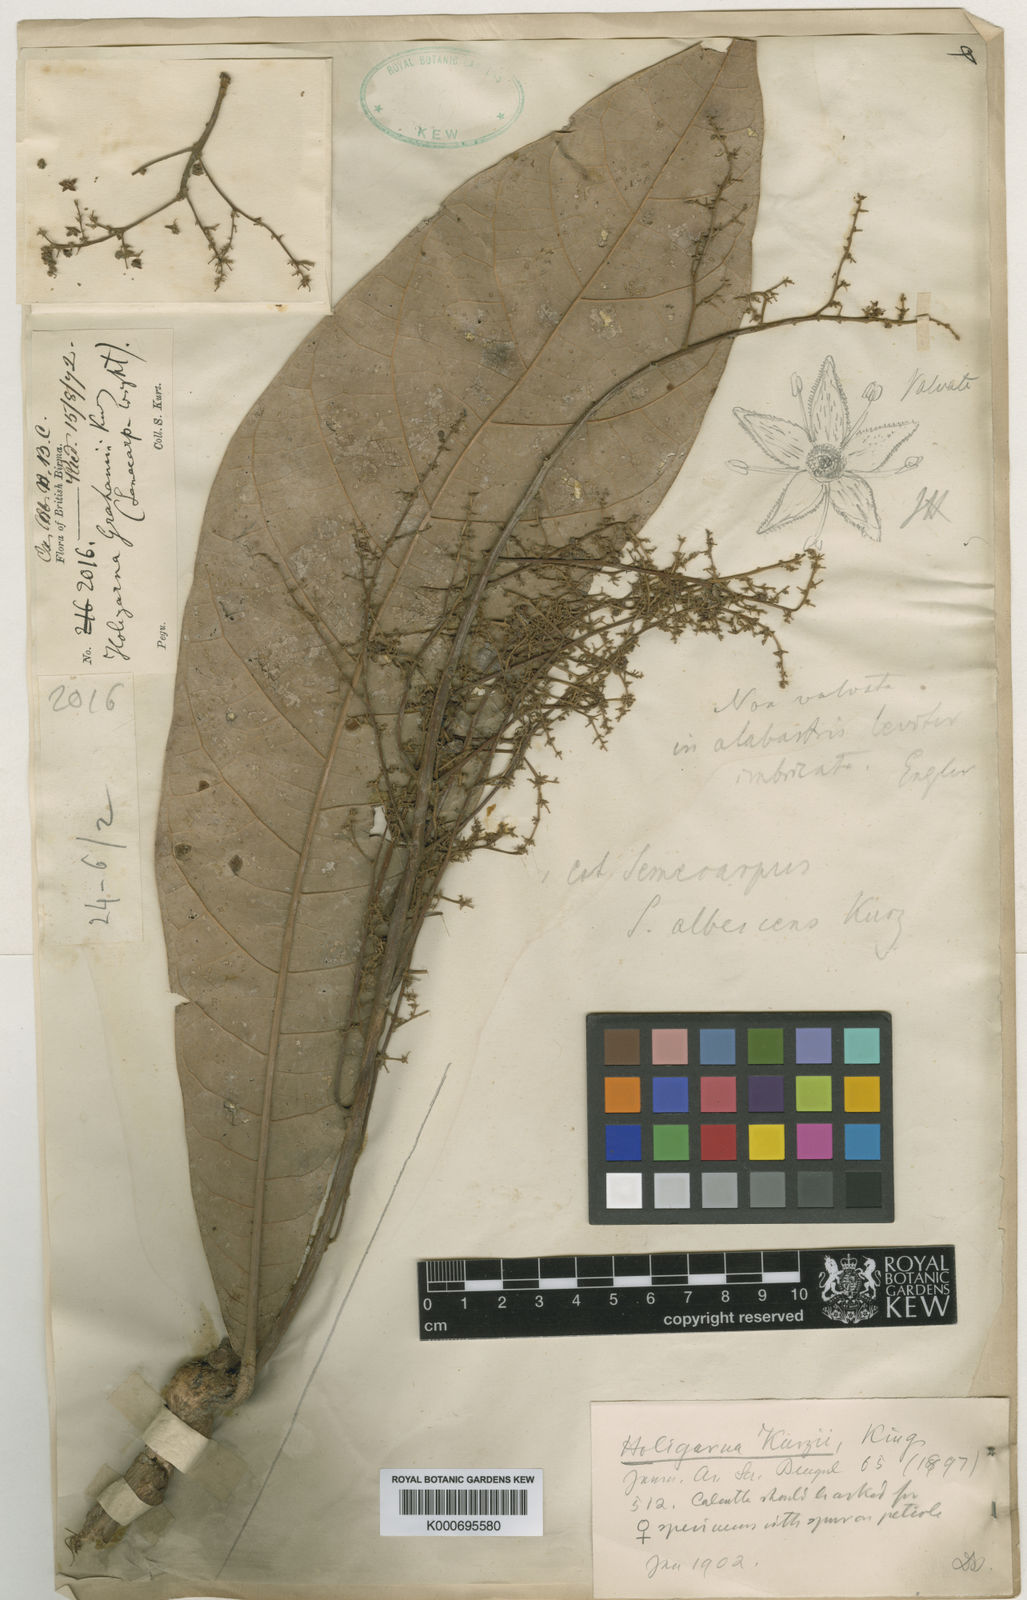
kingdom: Plantae
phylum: Tracheophyta
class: Magnoliopsida
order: Sapindales
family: Anacardiaceae
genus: Holigarna
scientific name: Holigarna kurzii
